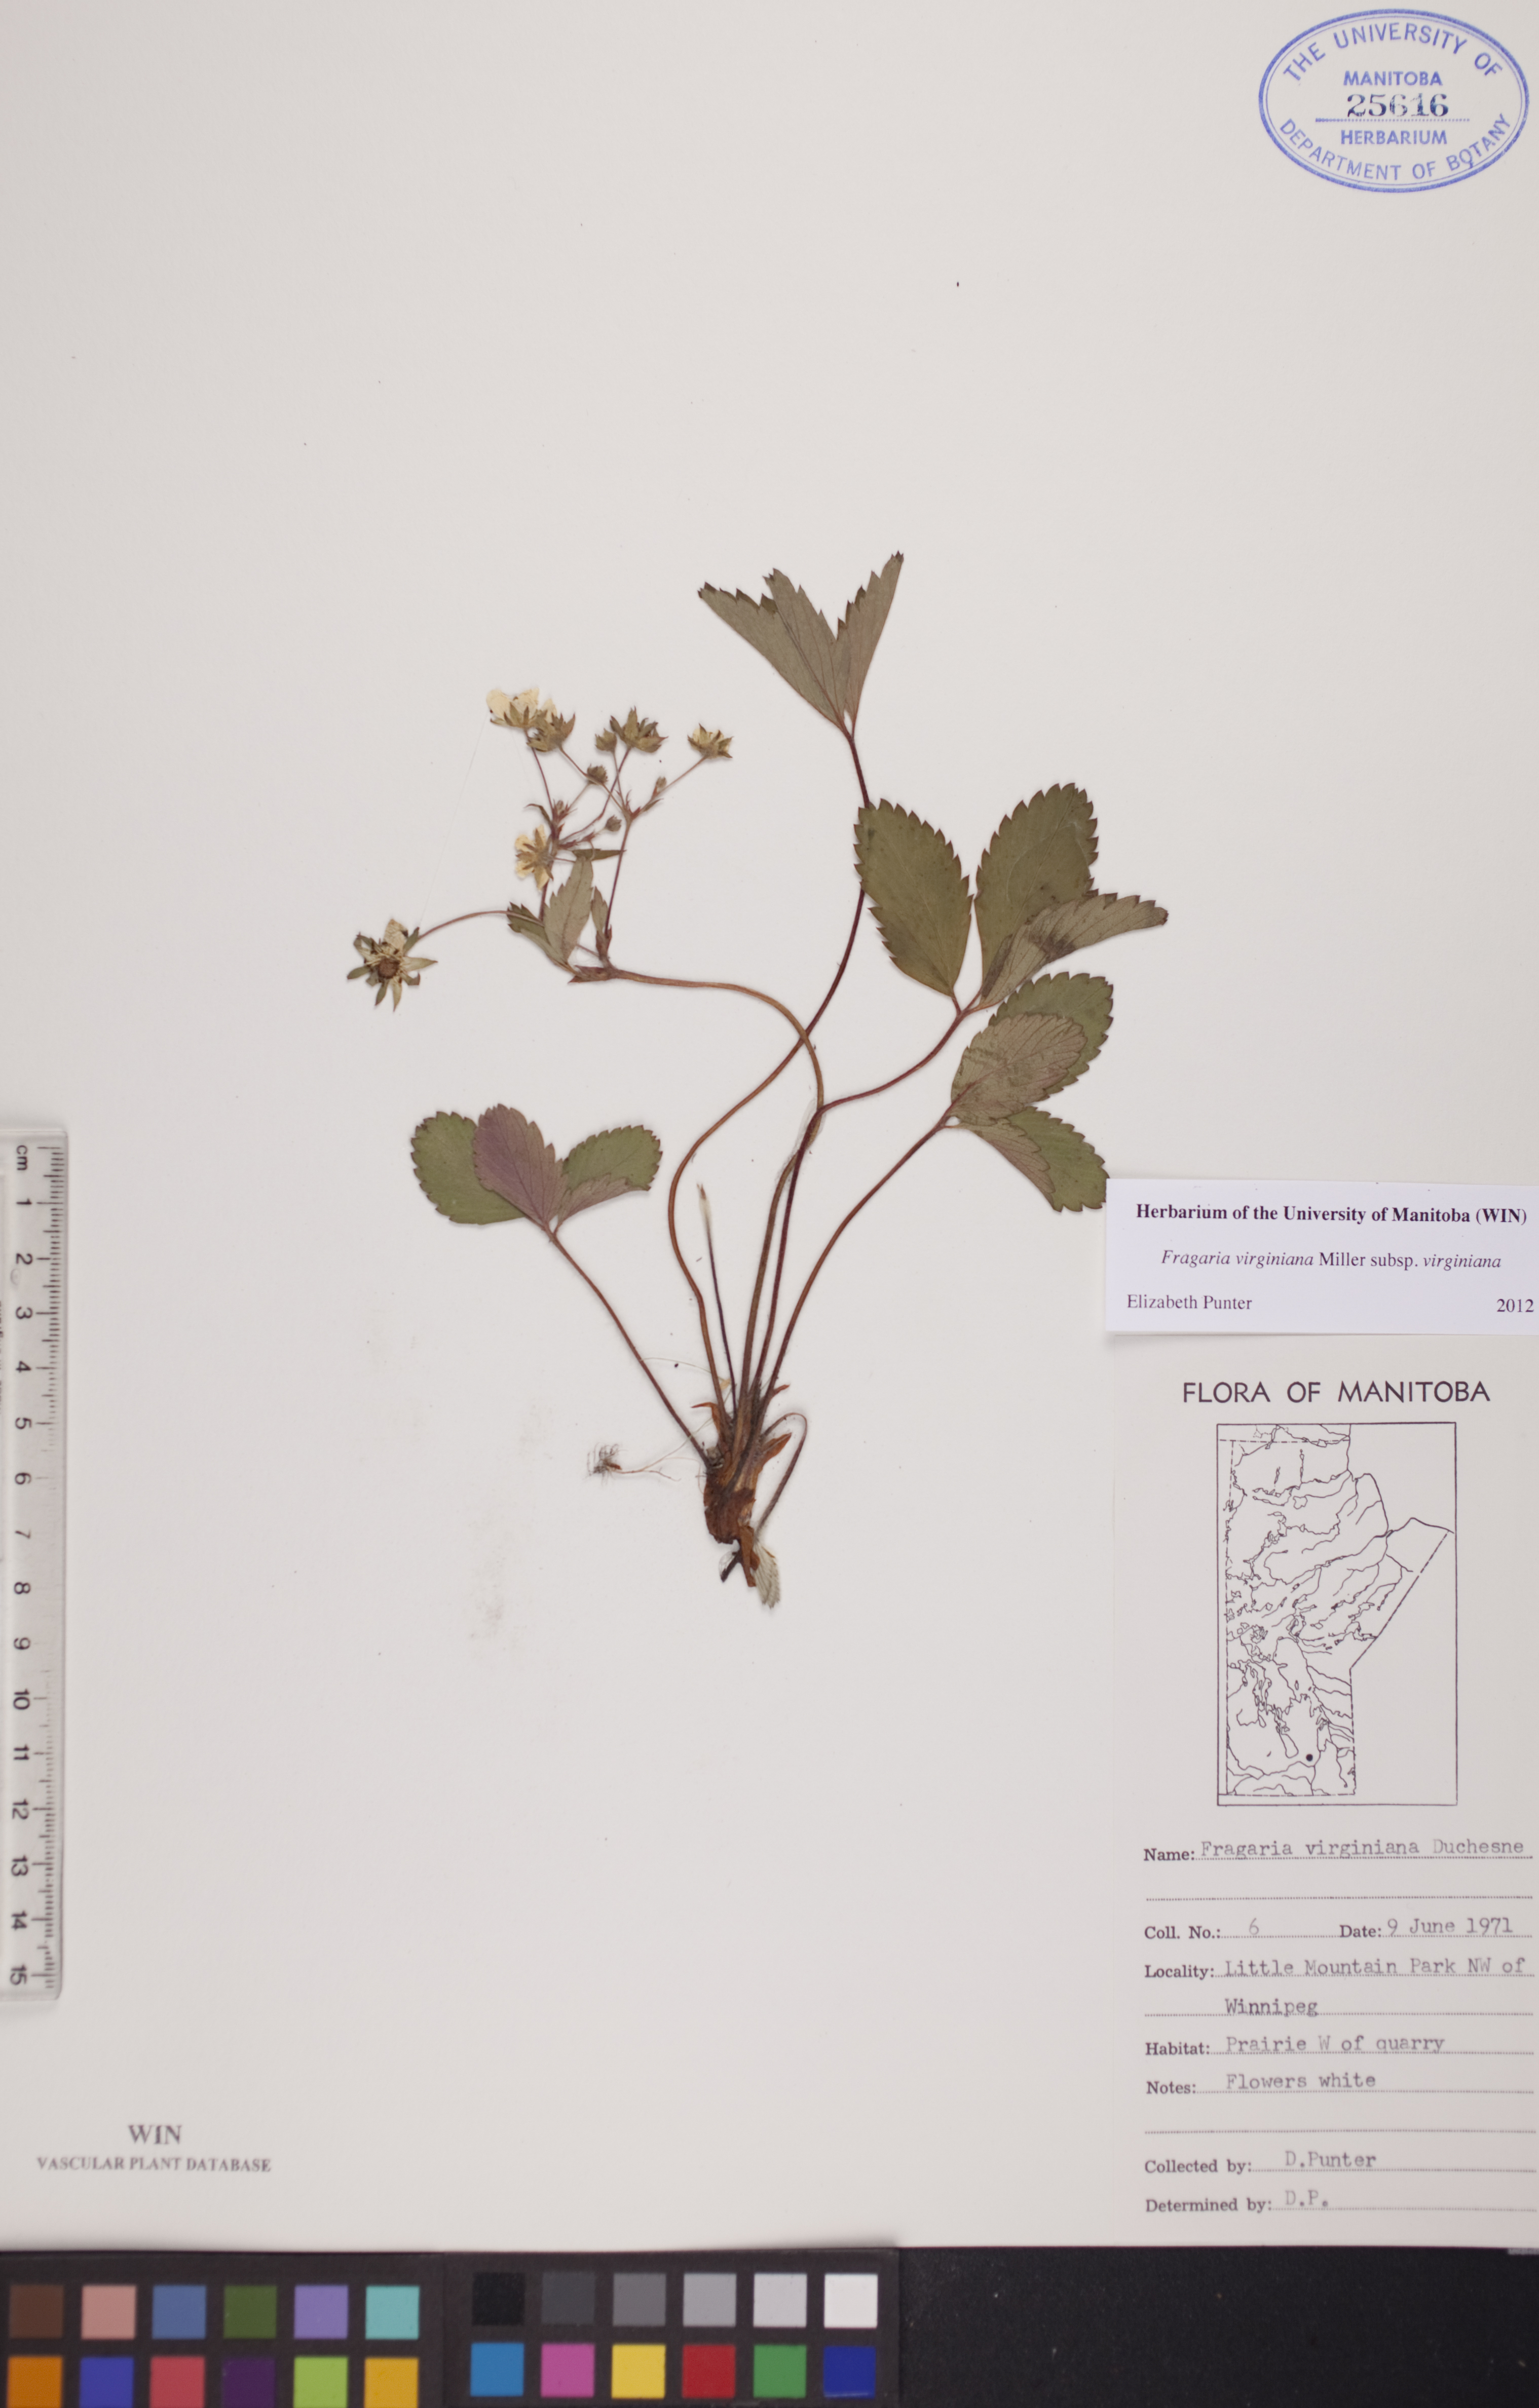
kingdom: Plantae
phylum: Tracheophyta
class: Magnoliopsida
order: Rosales
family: Rosaceae
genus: Fragaria
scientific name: Fragaria virginiana
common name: Thickleaved wild strawberry
